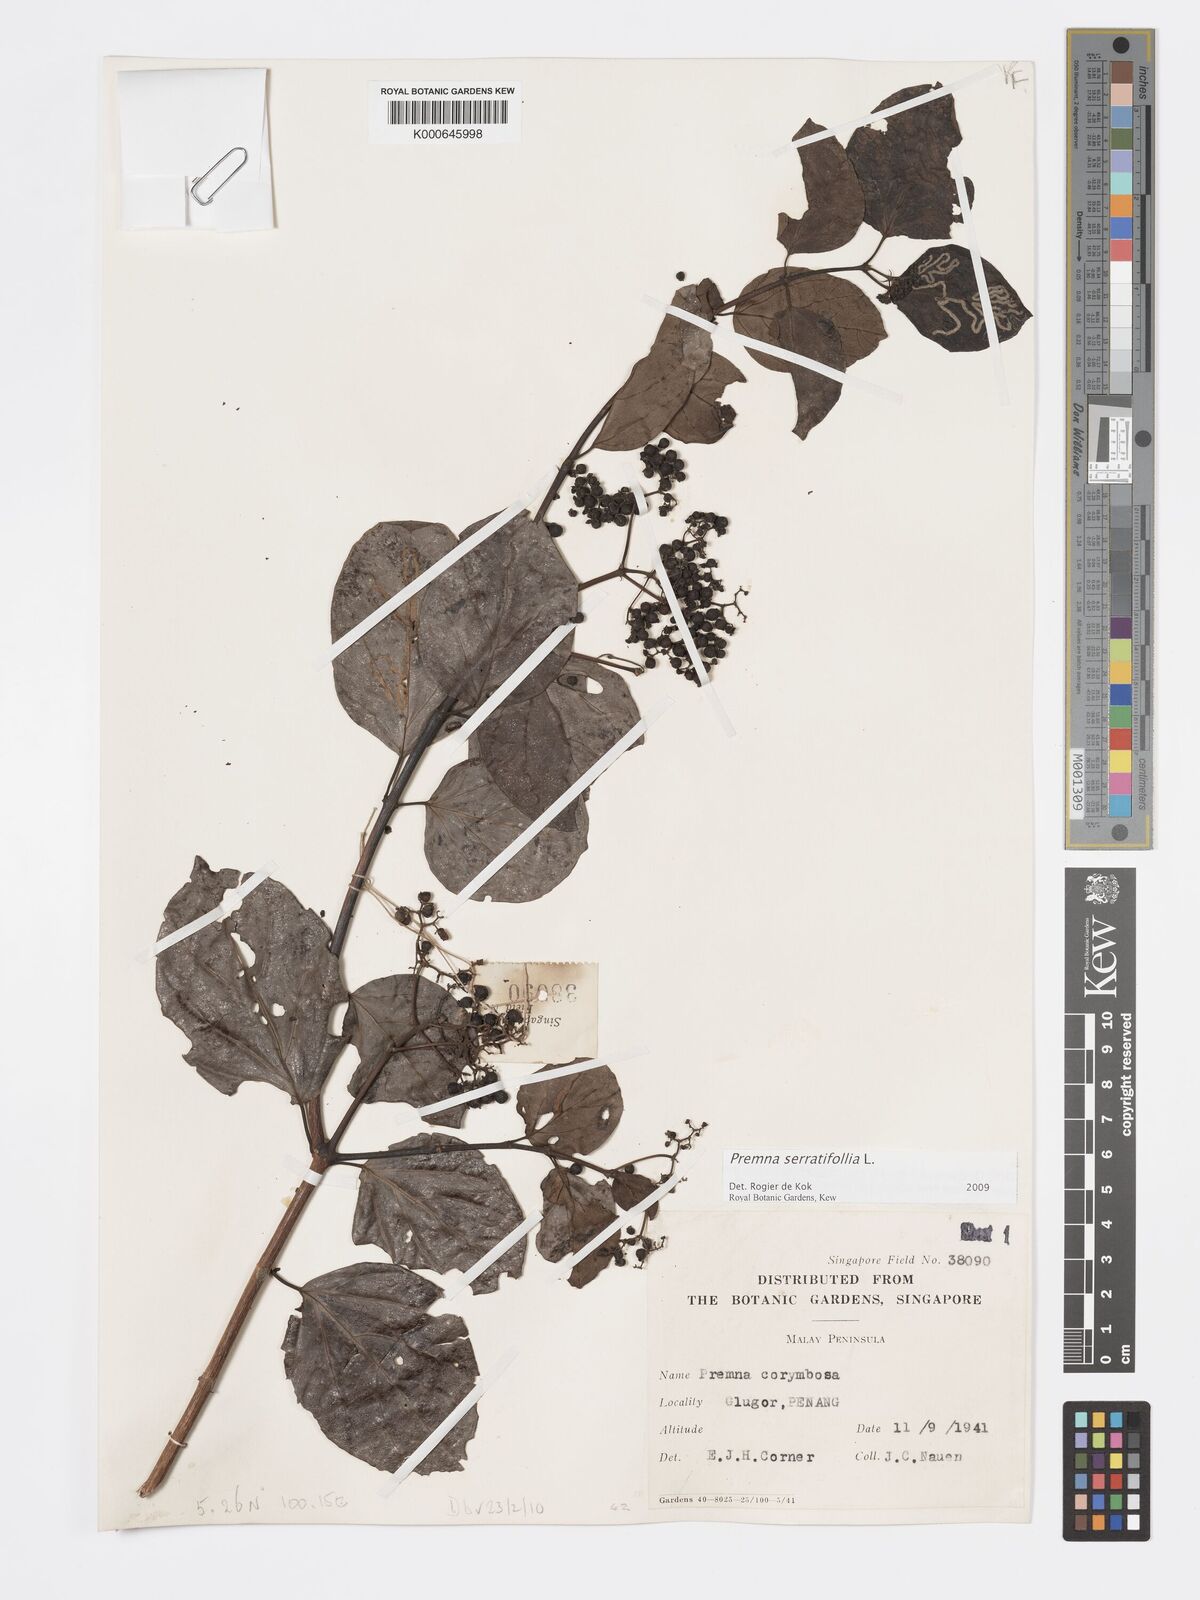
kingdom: Plantae
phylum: Tracheophyta
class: Magnoliopsida
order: Lamiales
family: Lamiaceae
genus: Premna
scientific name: Premna serratifolia
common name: Bastard guelder
